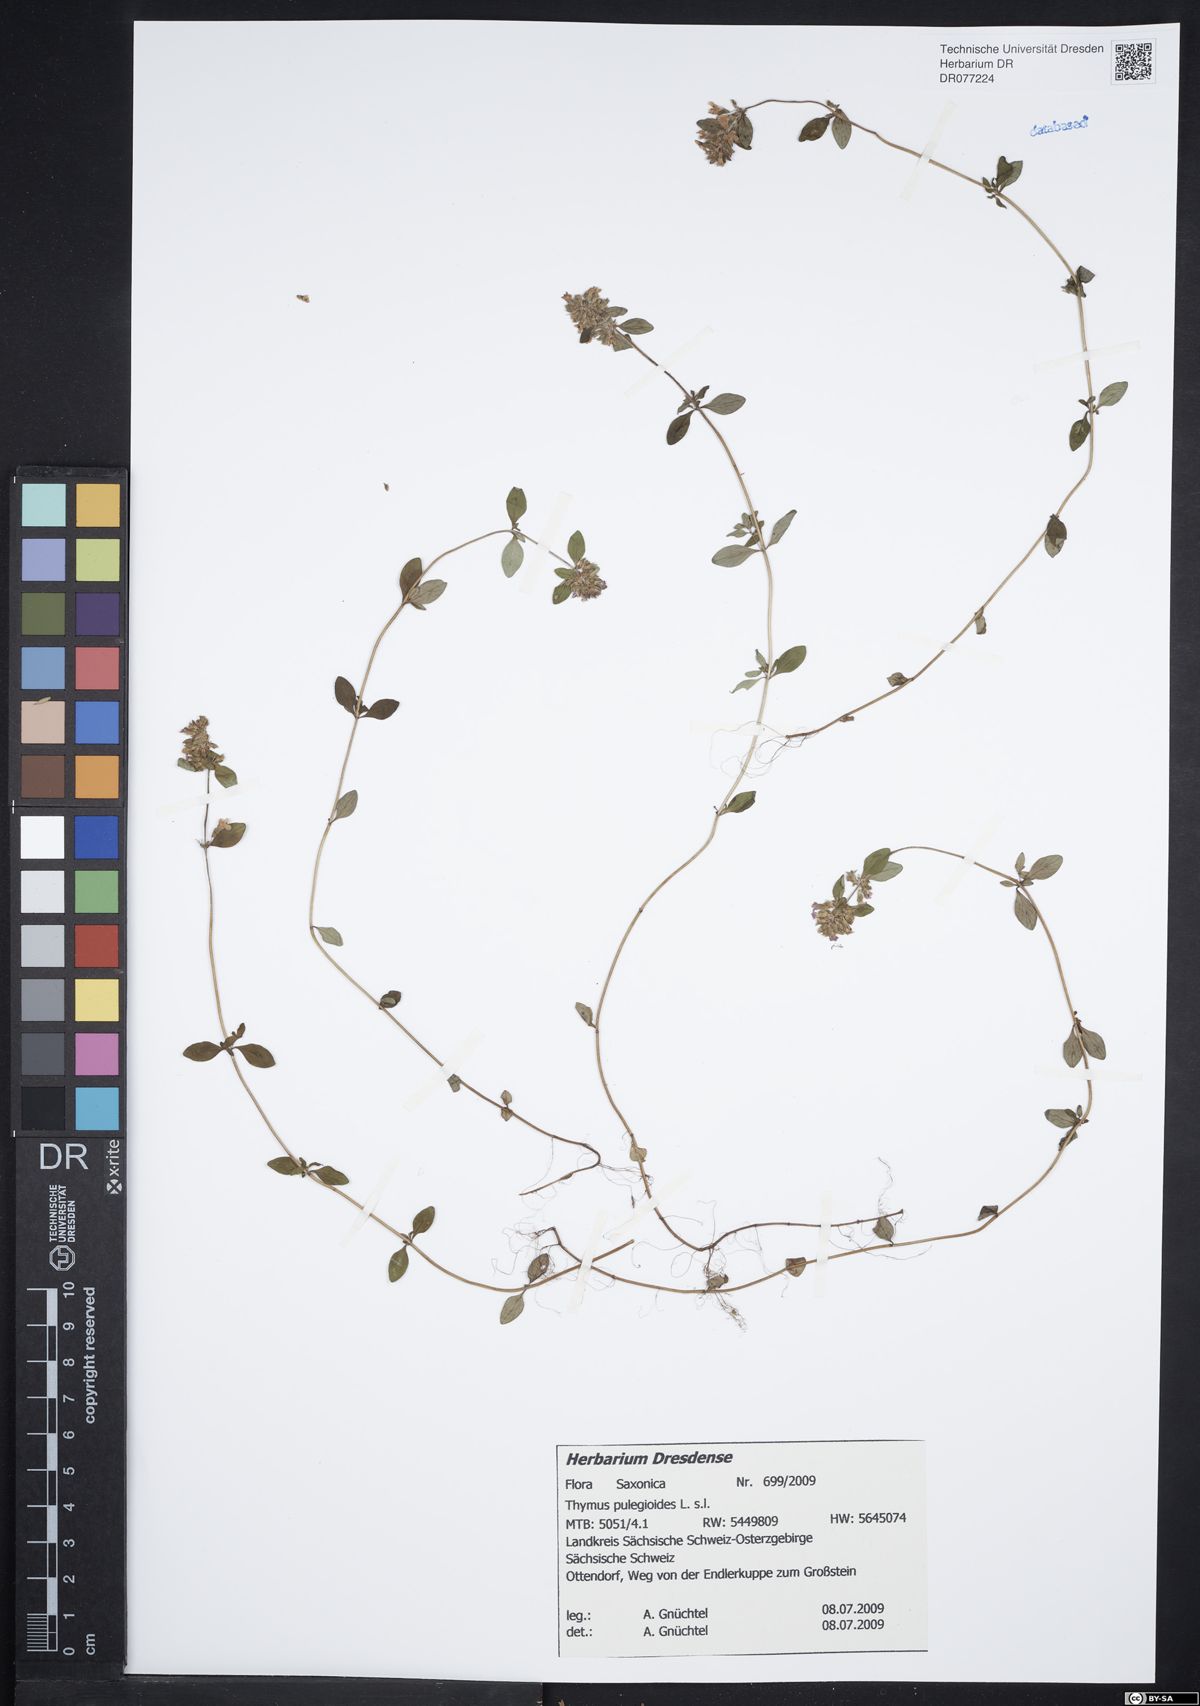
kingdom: Plantae
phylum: Tracheophyta
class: Magnoliopsida
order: Lamiales
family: Lamiaceae
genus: Thymus
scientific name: Thymus pulegioides
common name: Large thyme
